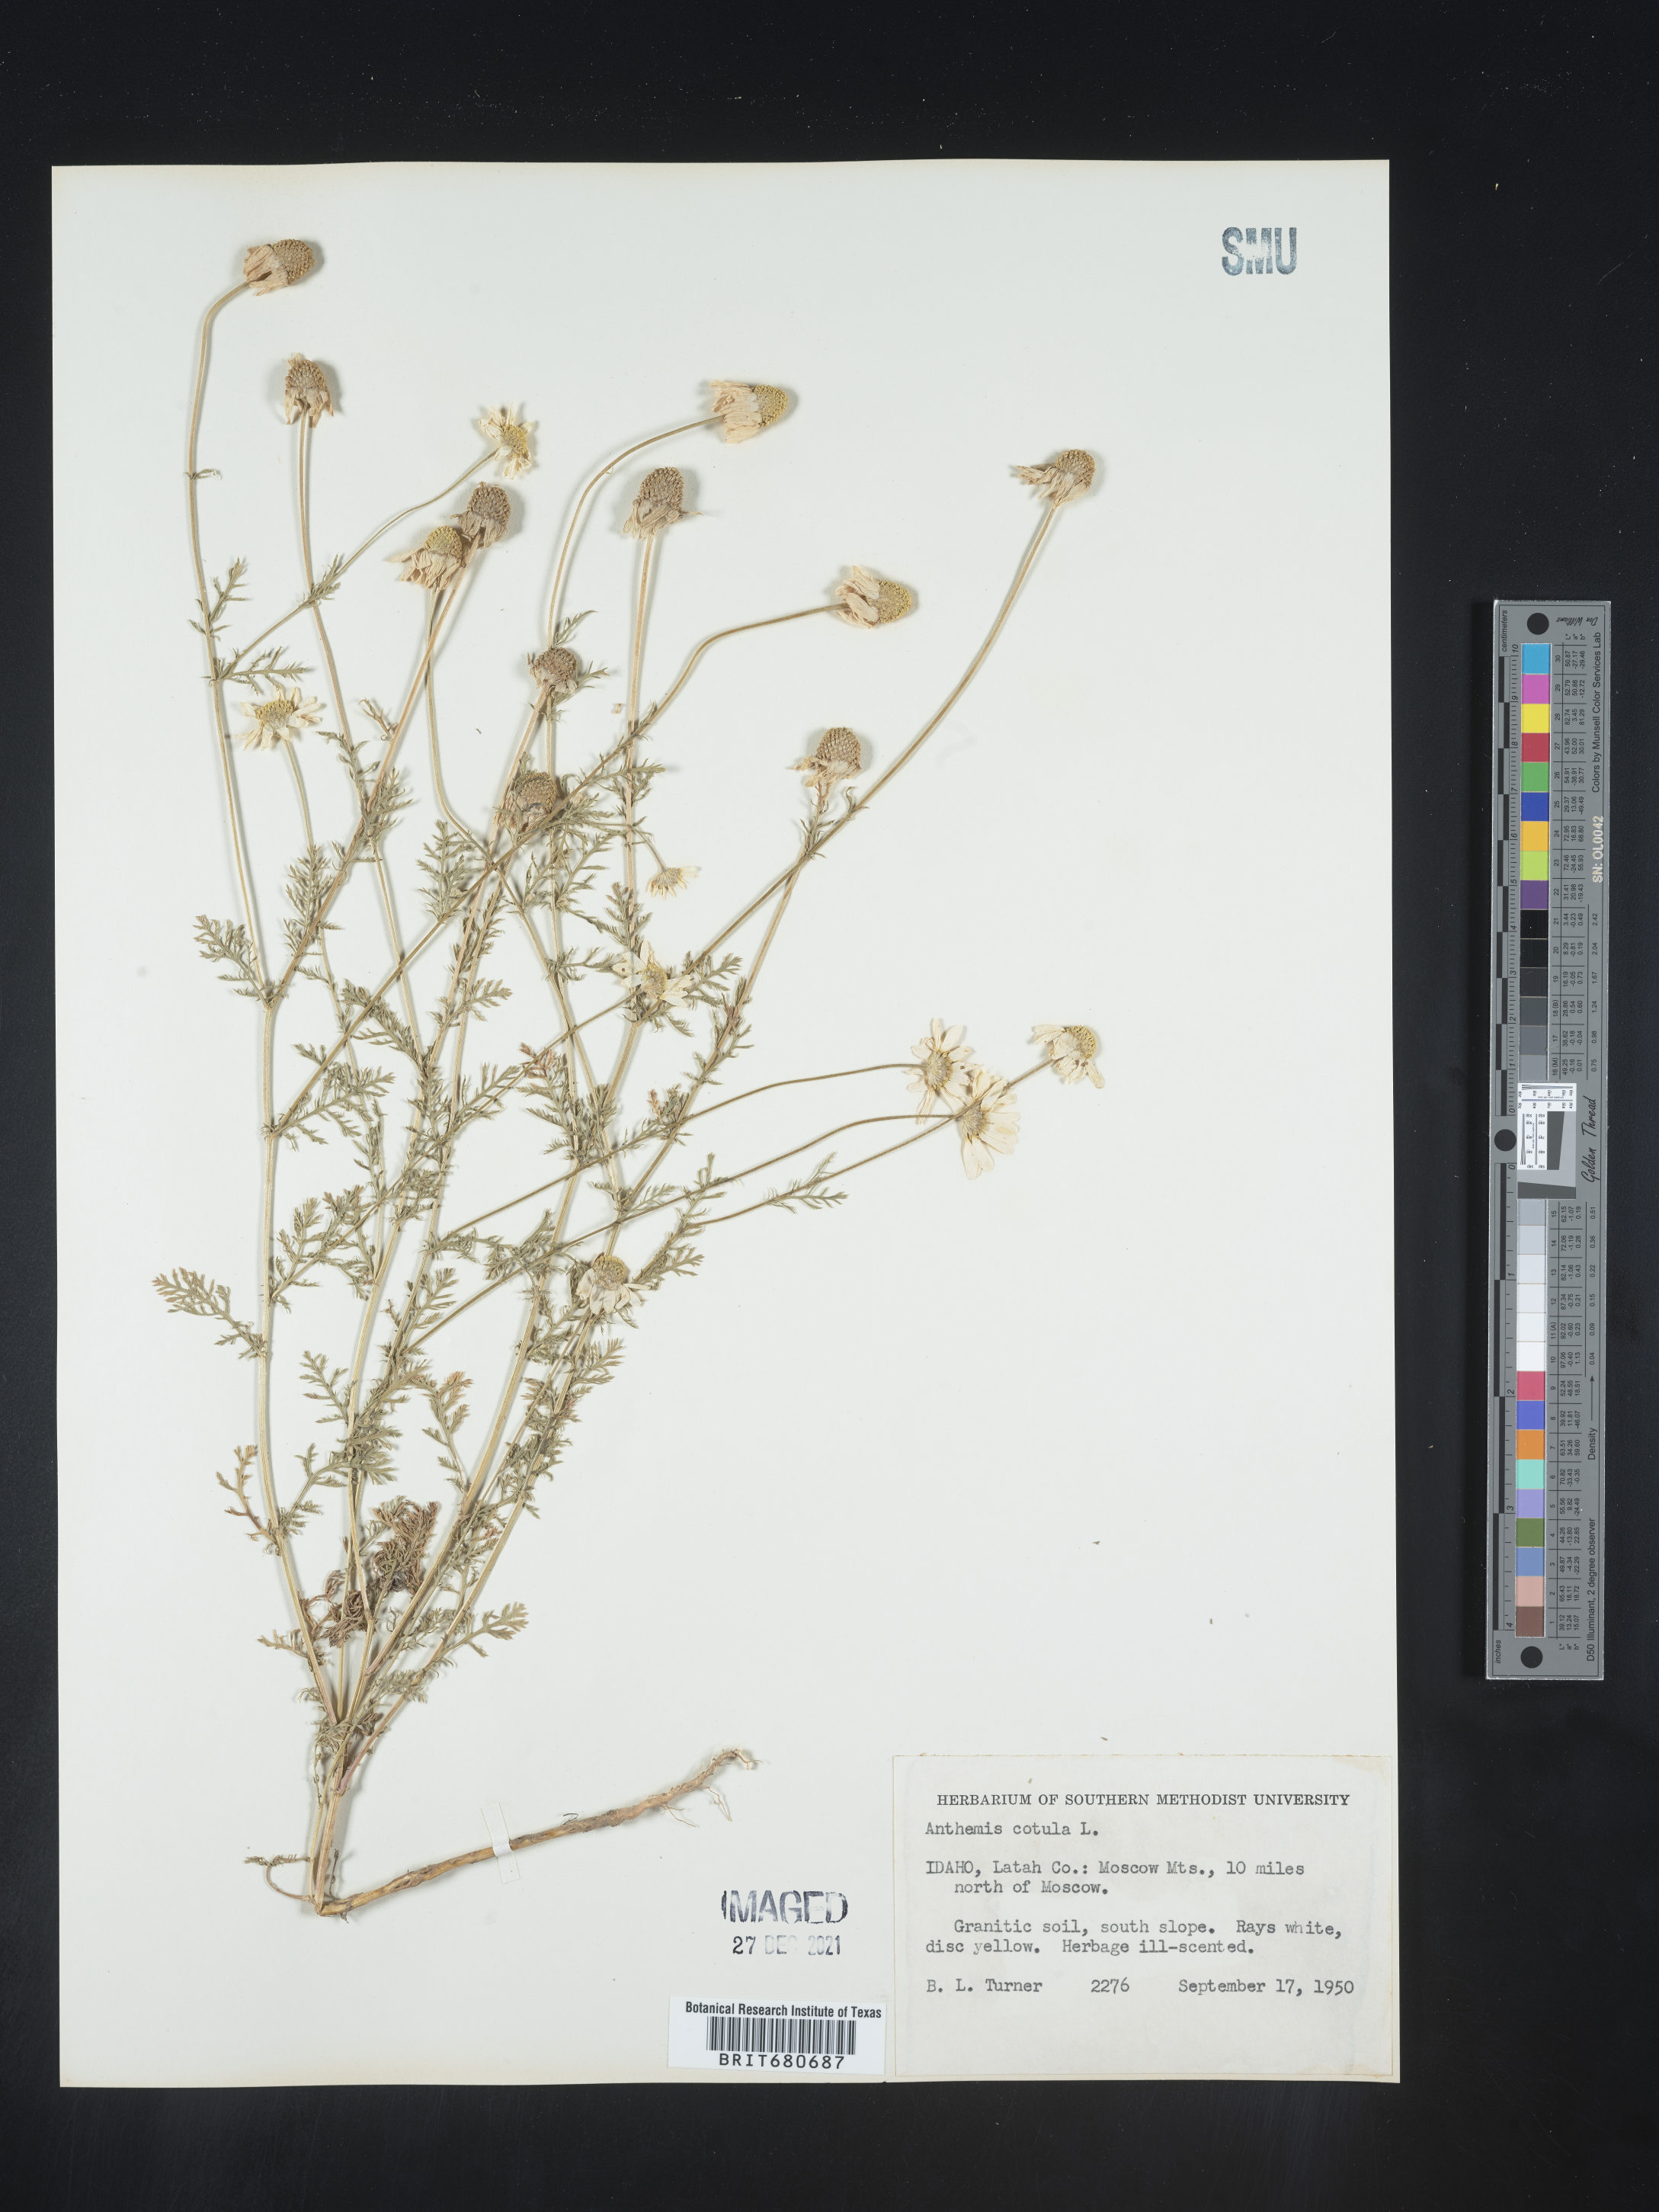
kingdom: Plantae
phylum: Tracheophyta
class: Magnoliopsida
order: Asterales
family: Asteraceae
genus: Anthemis
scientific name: Anthemis cotula
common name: Stinking chamomile
